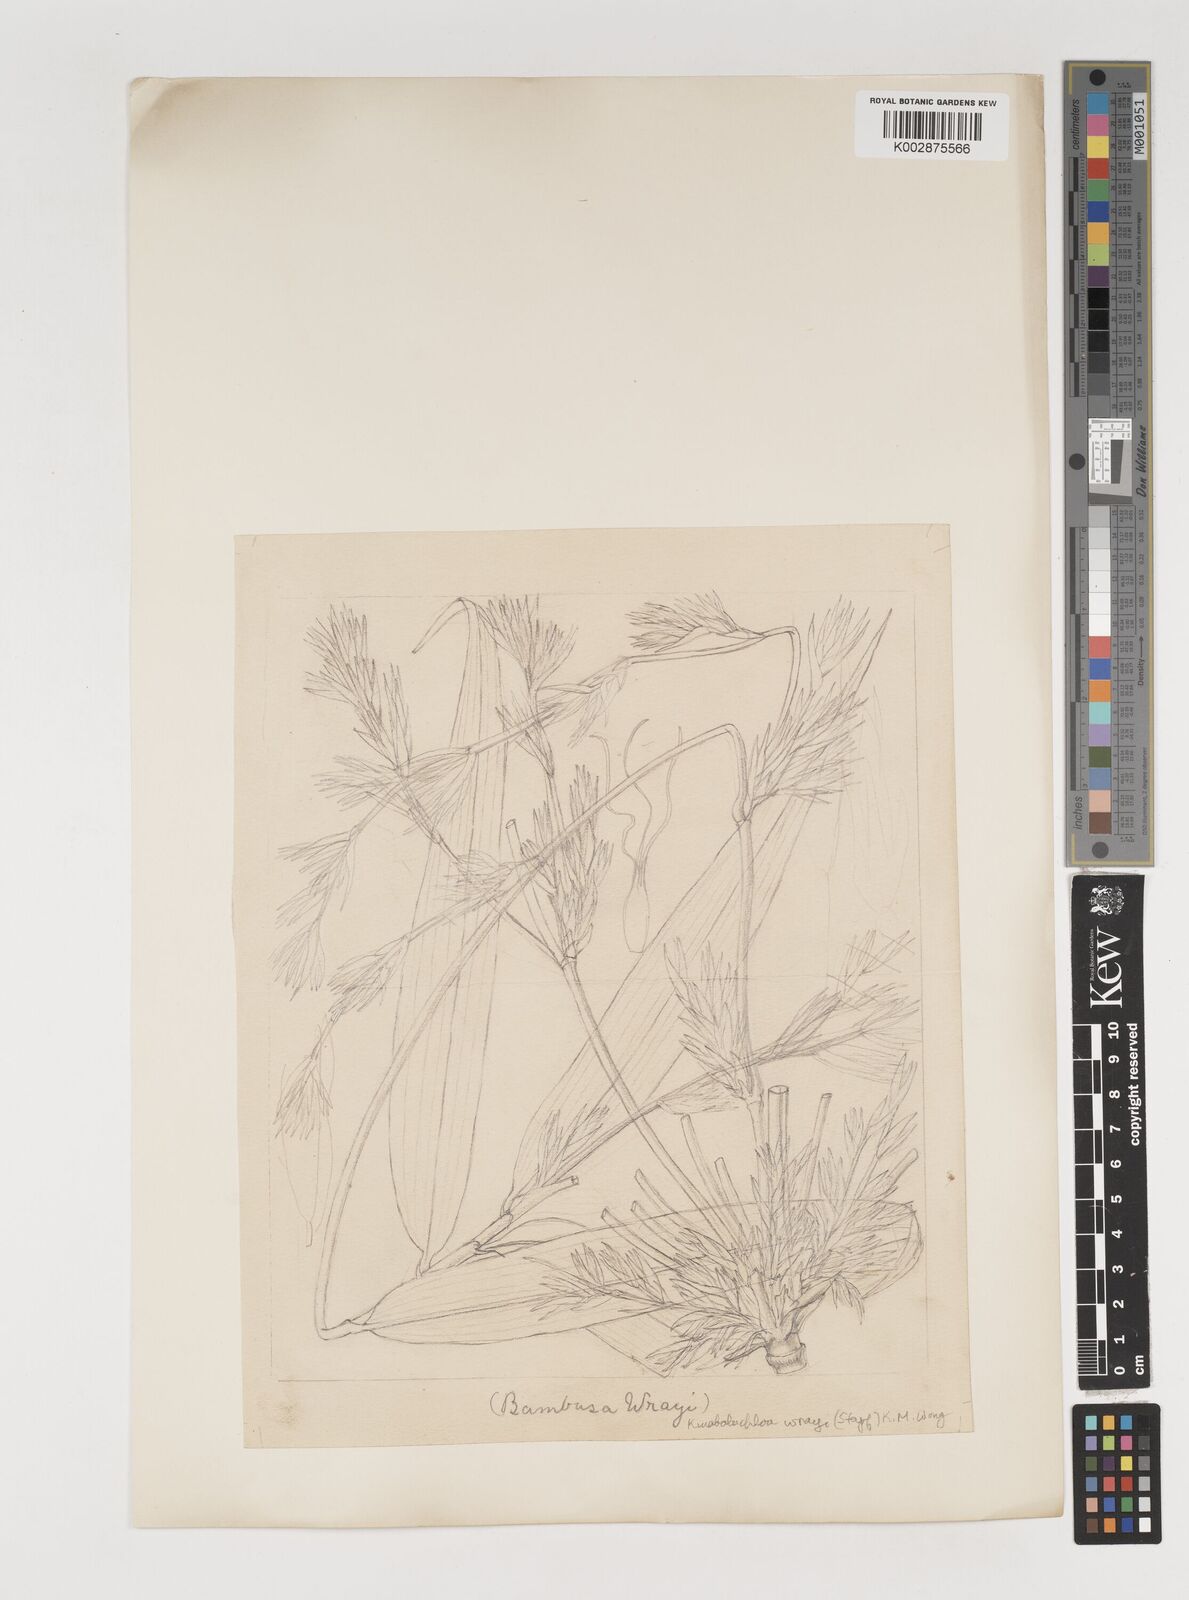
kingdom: Plantae
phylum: Tracheophyta
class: Liliopsida
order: Poales
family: Poaceae
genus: Kinabaluchloa
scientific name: Kinabaluchloa wrayi
